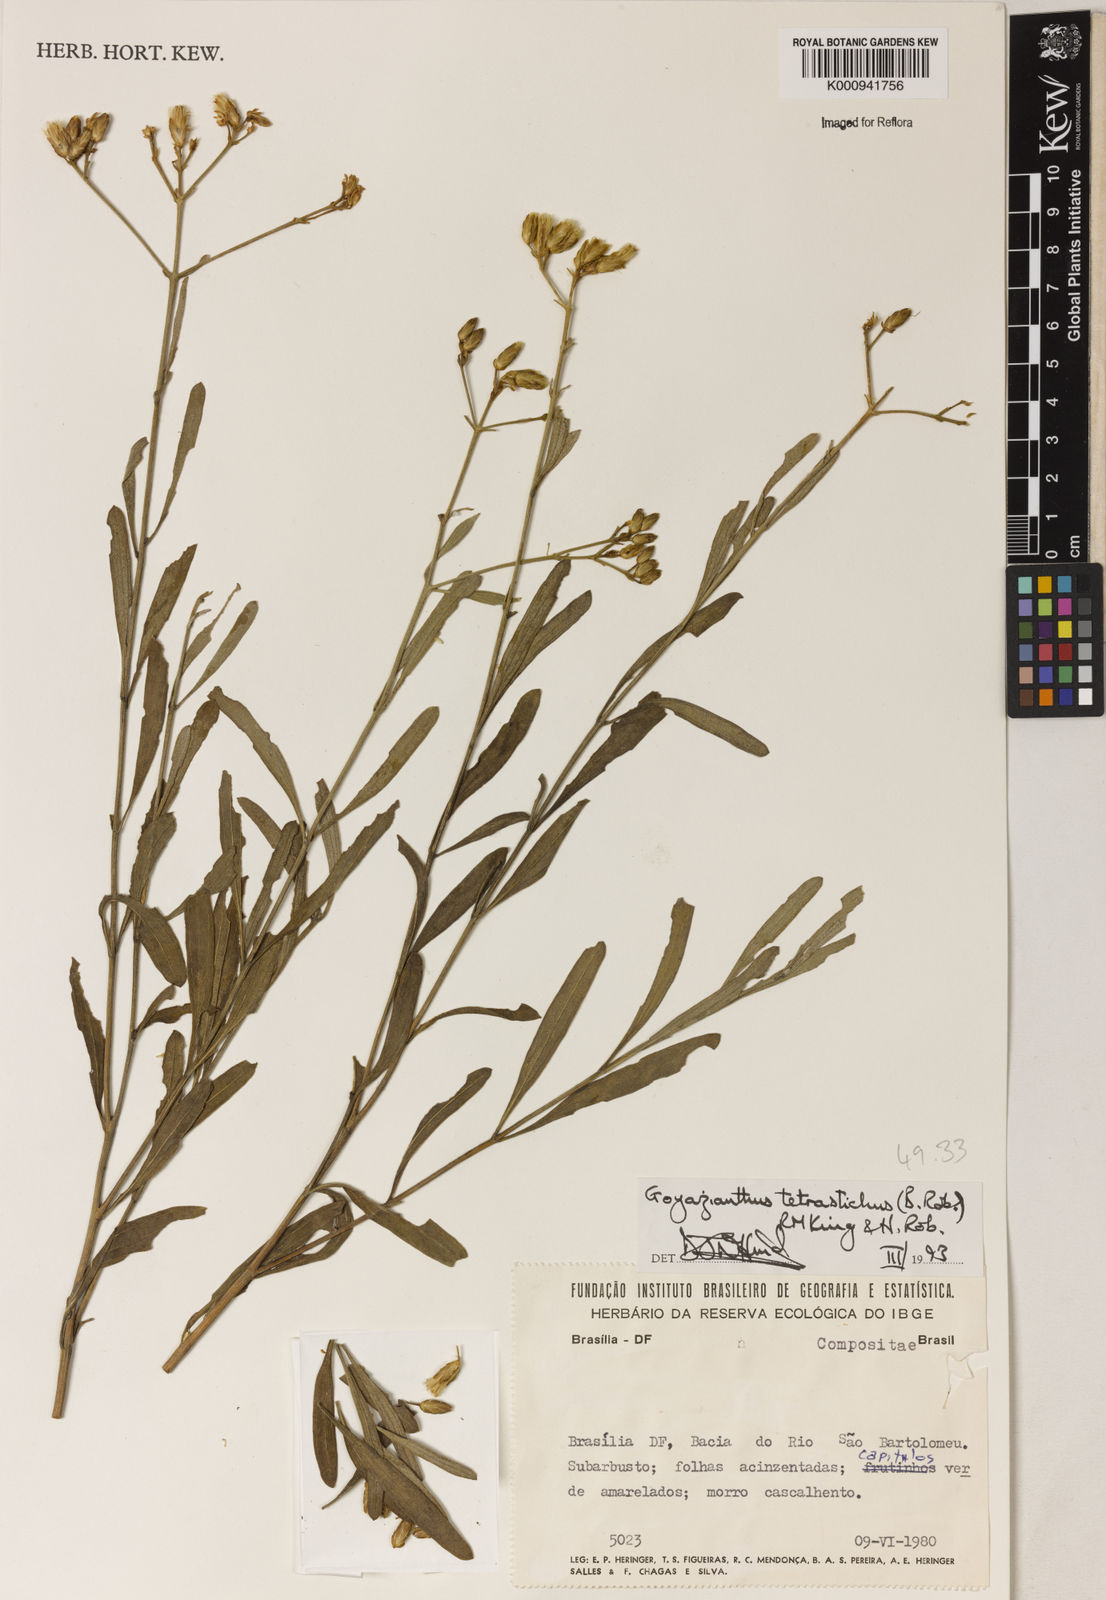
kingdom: Plantae
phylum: Tracheophyta
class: Magnoliopsida
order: Asterales
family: Asteraceae
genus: Goyazianthus
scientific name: Goyazianthus tetrastichus
